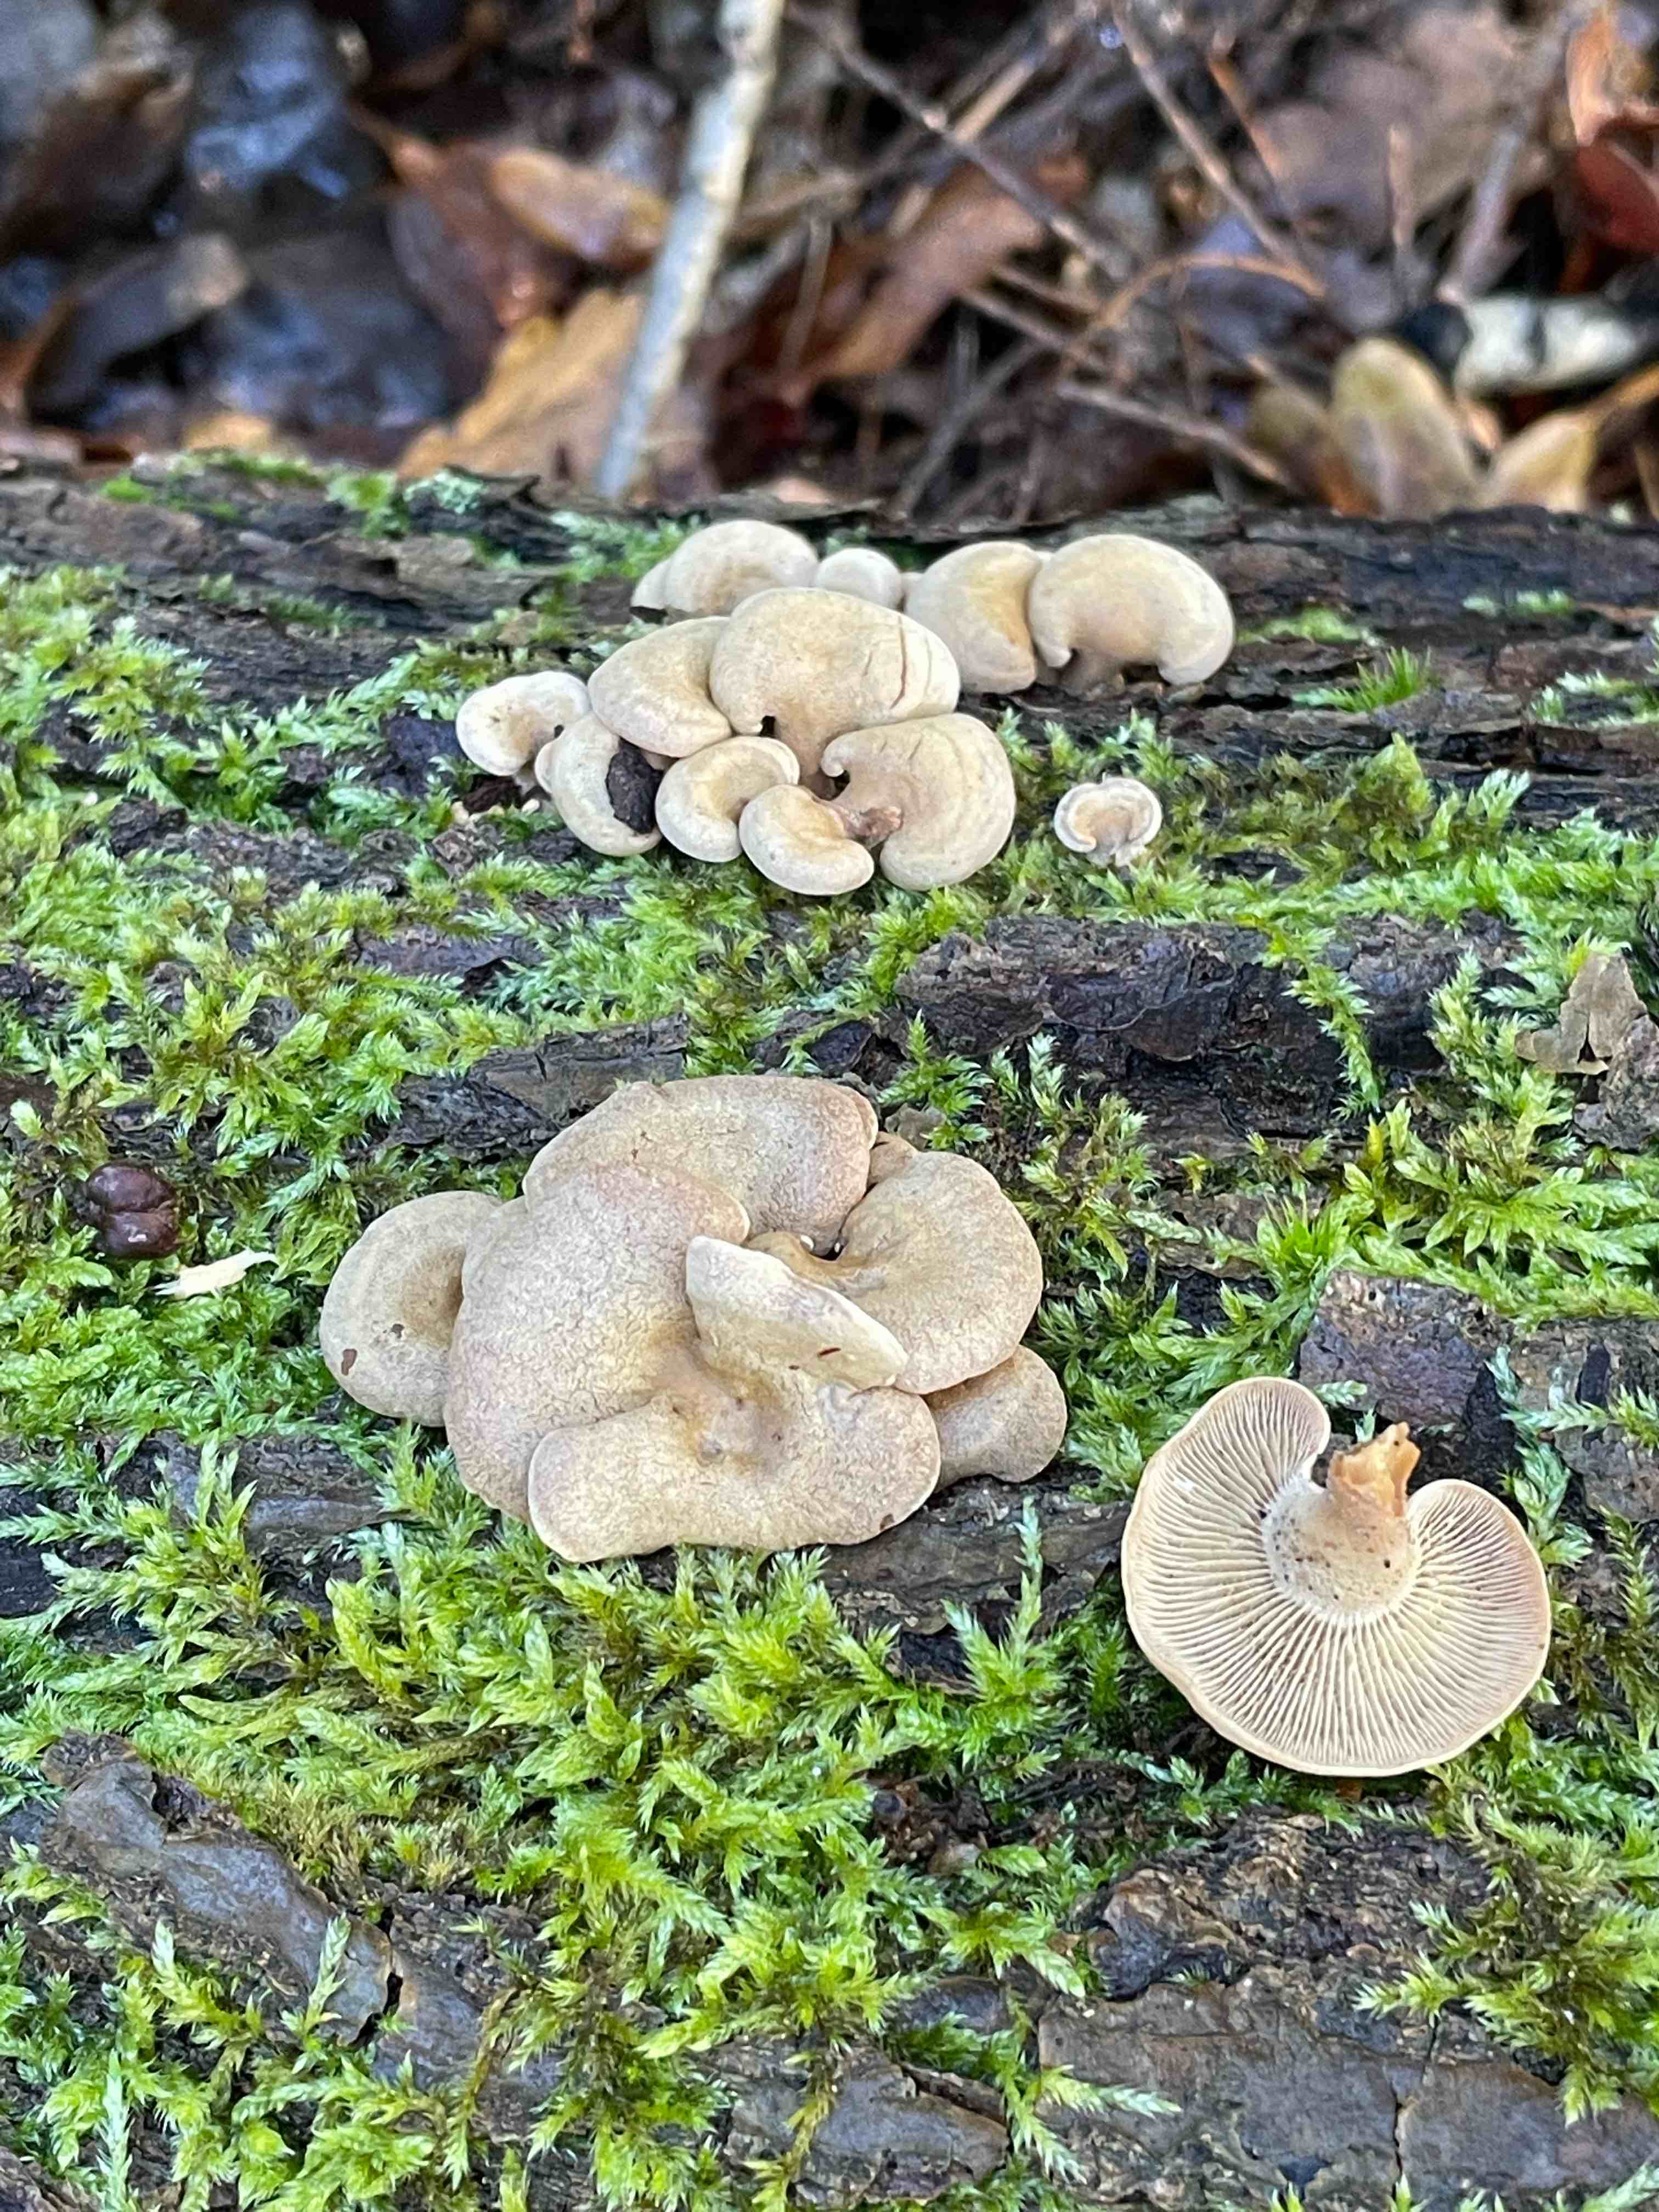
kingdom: Fungi
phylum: Basidiomycota
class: Agaricomycetes
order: Agaricales
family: Mycenaceae
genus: Panellus
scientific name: Panellus stipticus
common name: kliddet epaulethat
